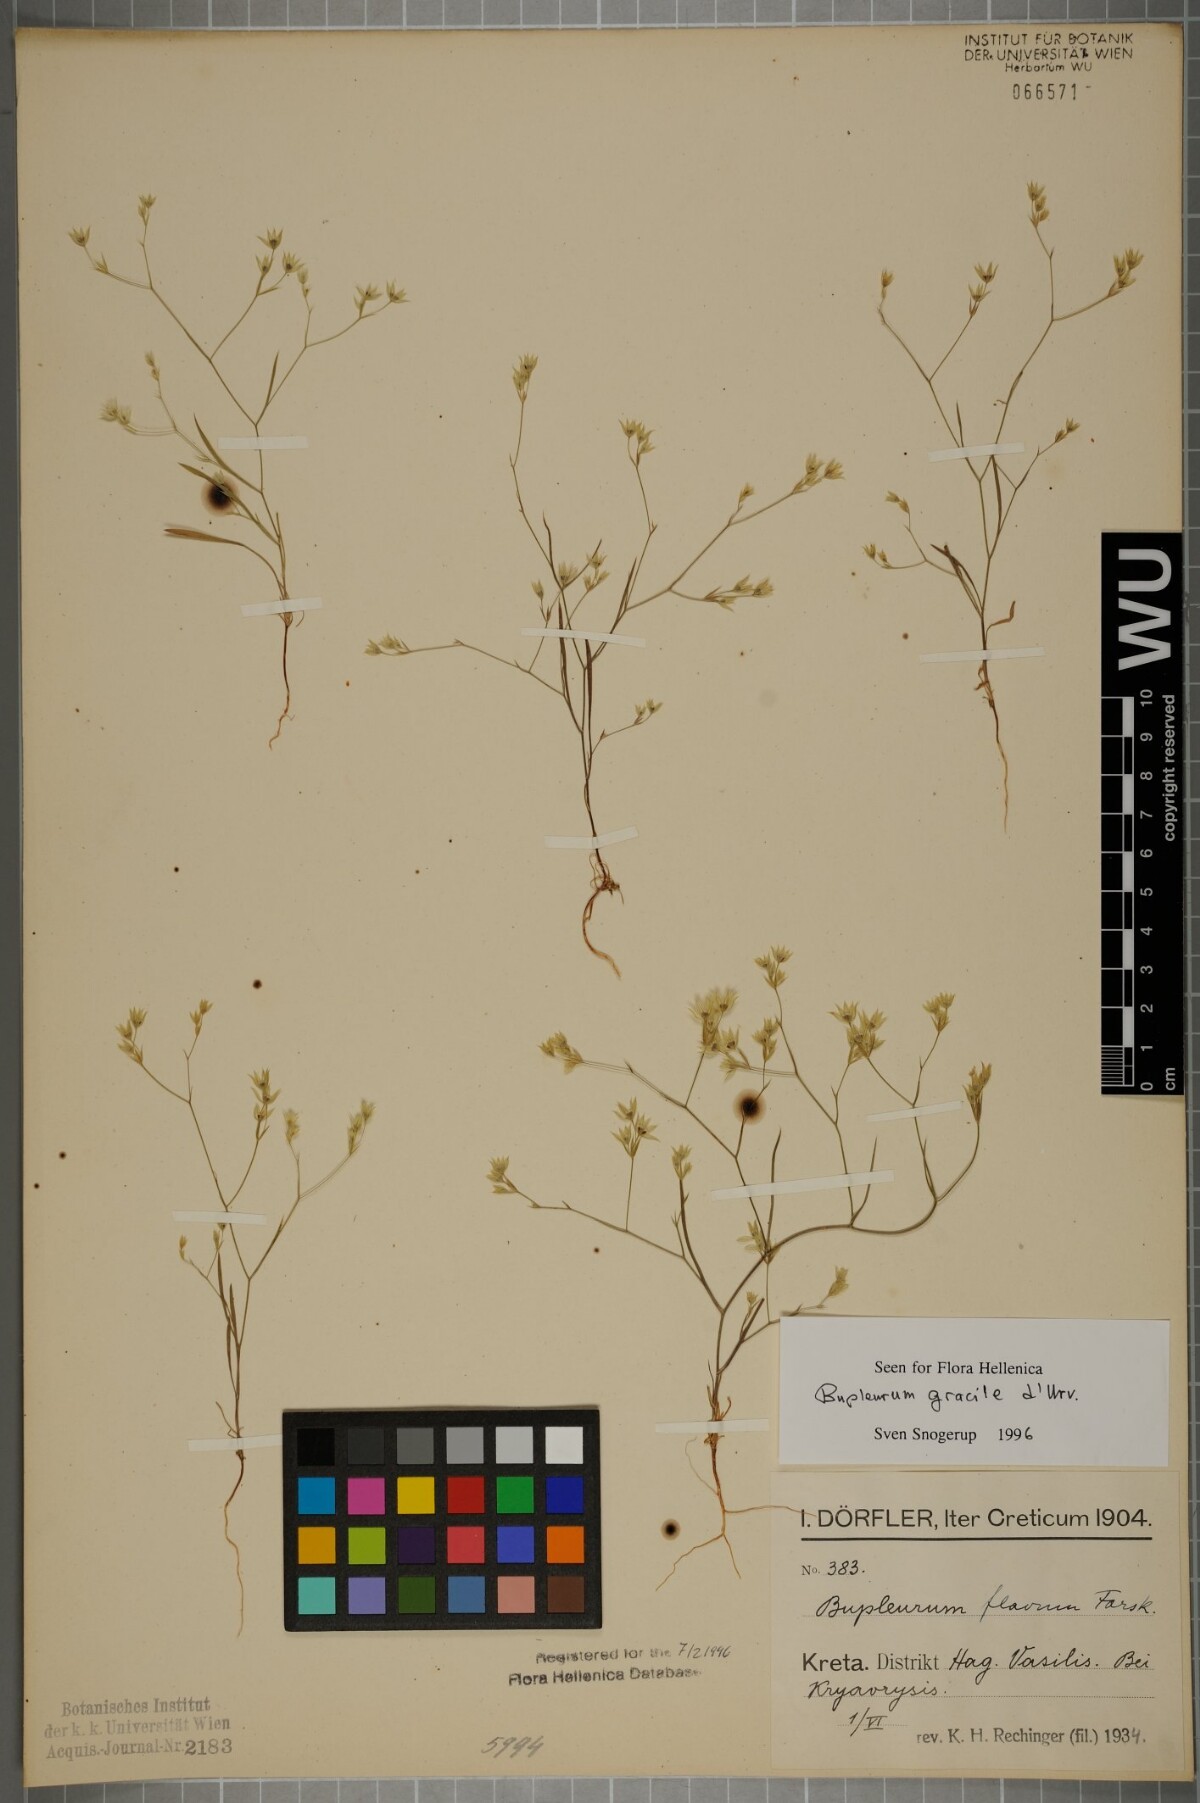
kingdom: Plantae
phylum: Tracheophyta
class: Magnoliopsida
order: Apiales
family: Apiaceae
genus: Bupleurum
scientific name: Bupleurum gracile
